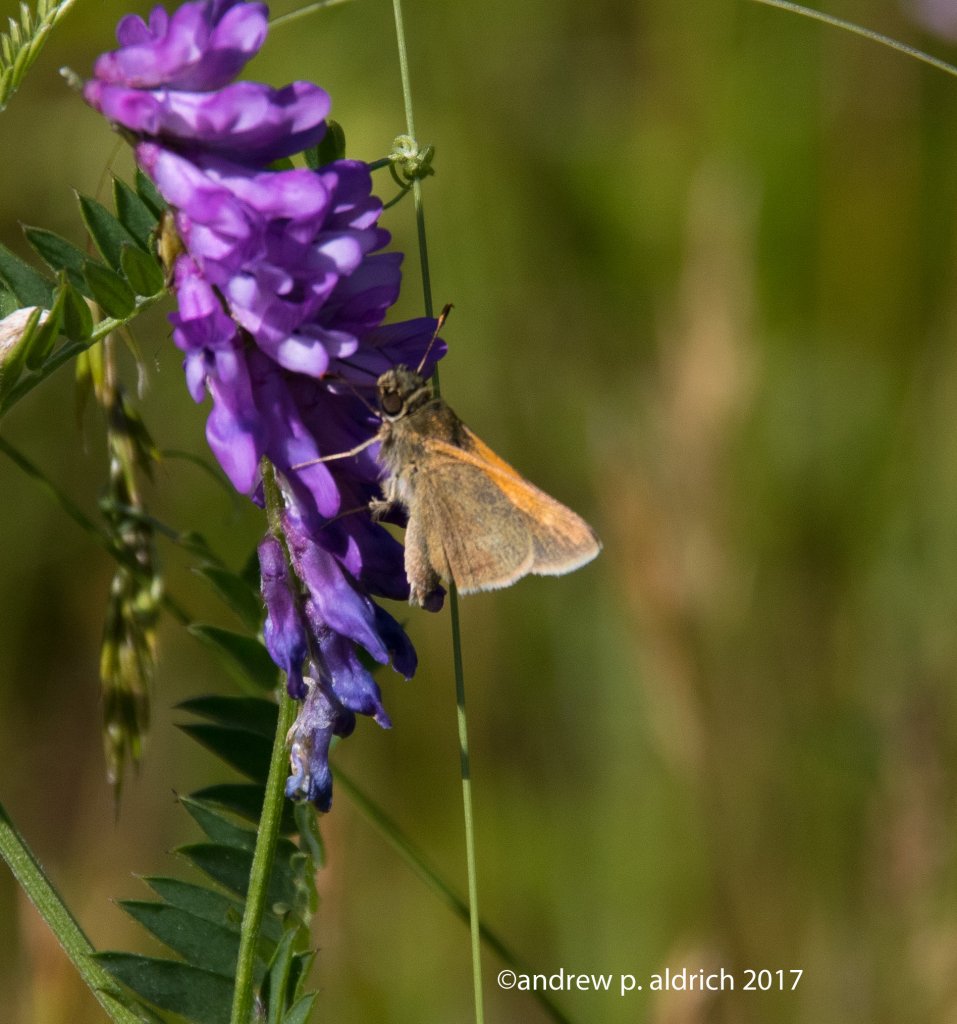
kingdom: Animalia
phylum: Arthropoda
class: Insecta
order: Lepidoptera
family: Hesperiidae
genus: Polites
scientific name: Polites themistocles
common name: Tawny-edged Skipper
